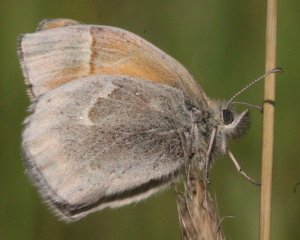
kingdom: Animalia
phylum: Arthropoda
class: Insecta
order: Lepidoptera
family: Nymphalidae
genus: Coenonympha
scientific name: Coenonympha tullia
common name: Large Heath
